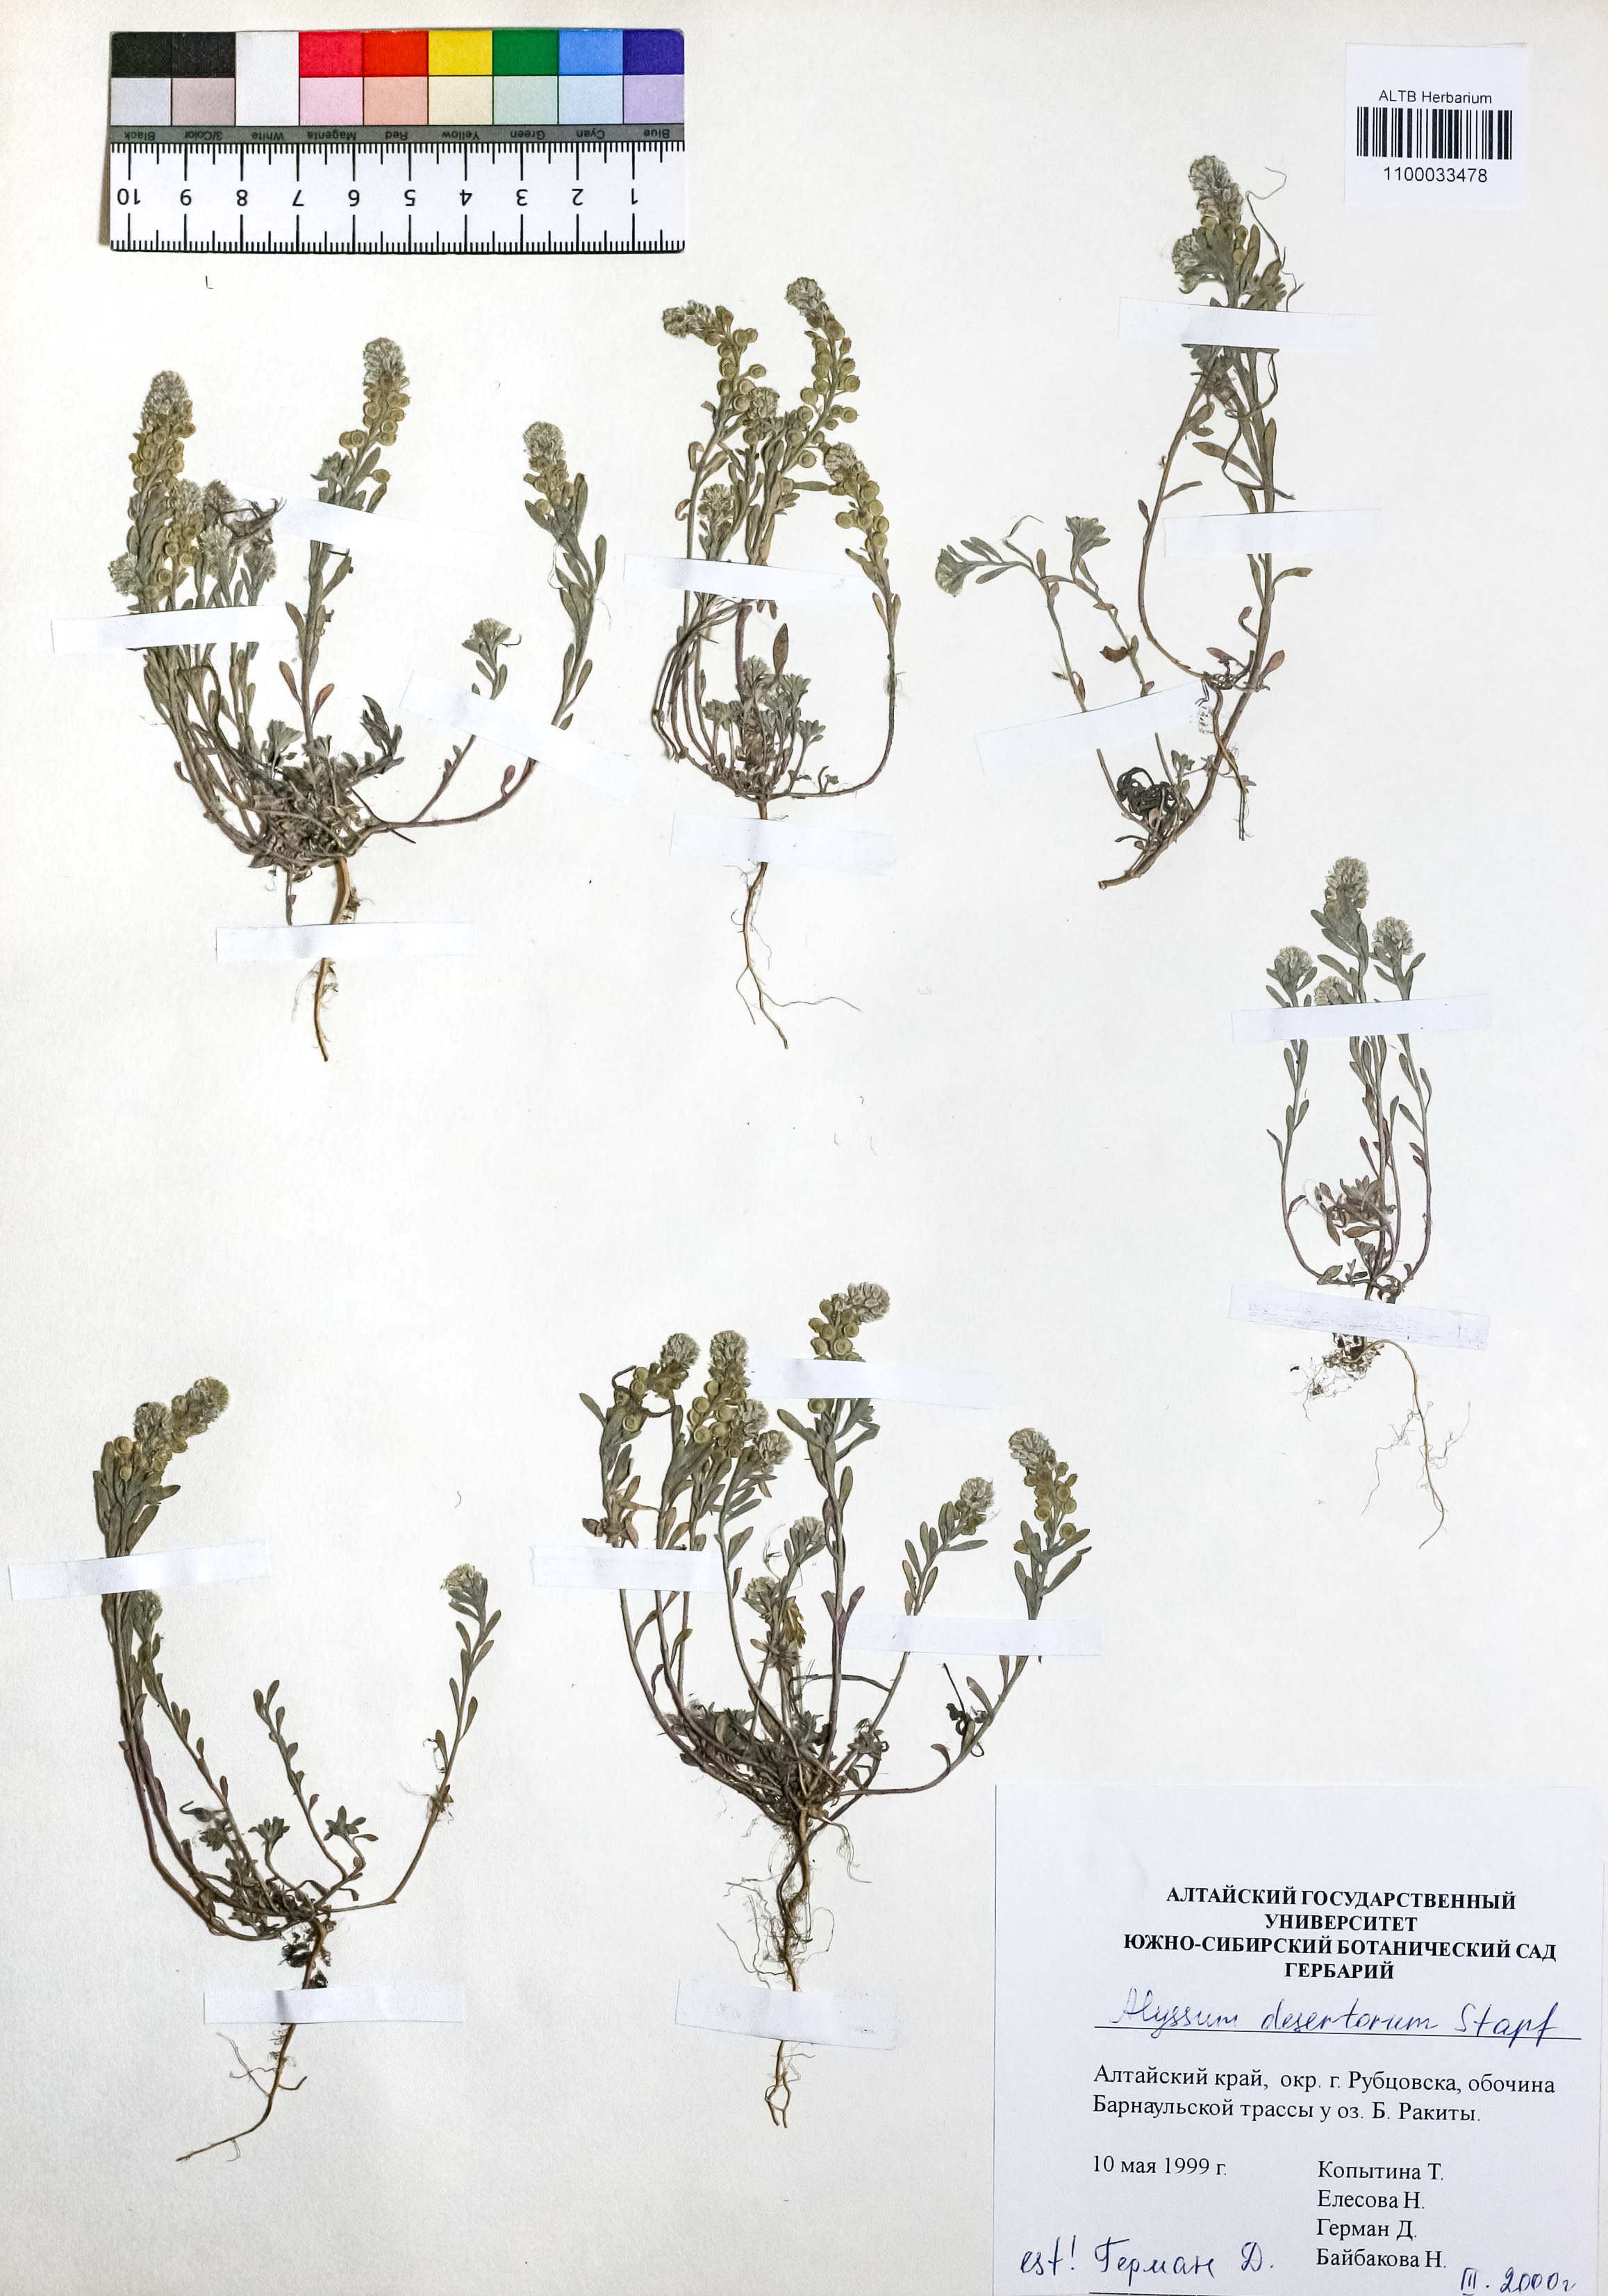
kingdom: Plantae
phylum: Tracheophyta
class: Magnoliopsida
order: Brassicales
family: Brassicaceae
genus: Alyssum
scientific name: Alyssum turkestanicum
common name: Desert alyssum
